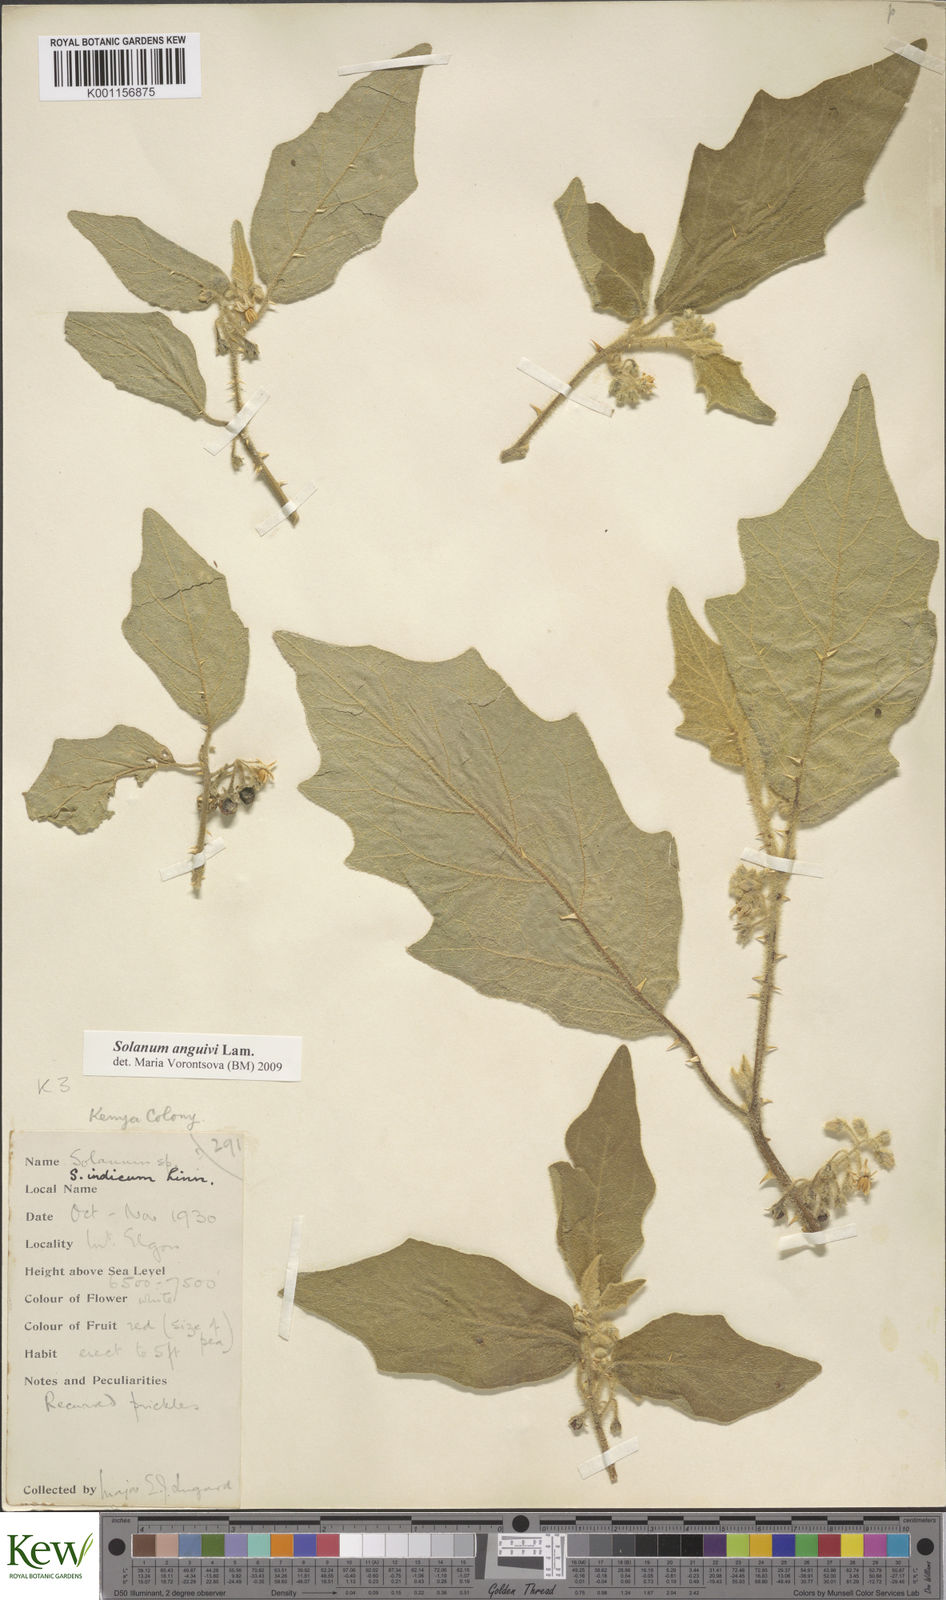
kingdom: Plantae
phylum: Tracheophyta
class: Magnoliopsida
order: Solanales
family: Solanaceae
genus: Solanum
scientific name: Solanum anguivi
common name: Forest bitterberry
